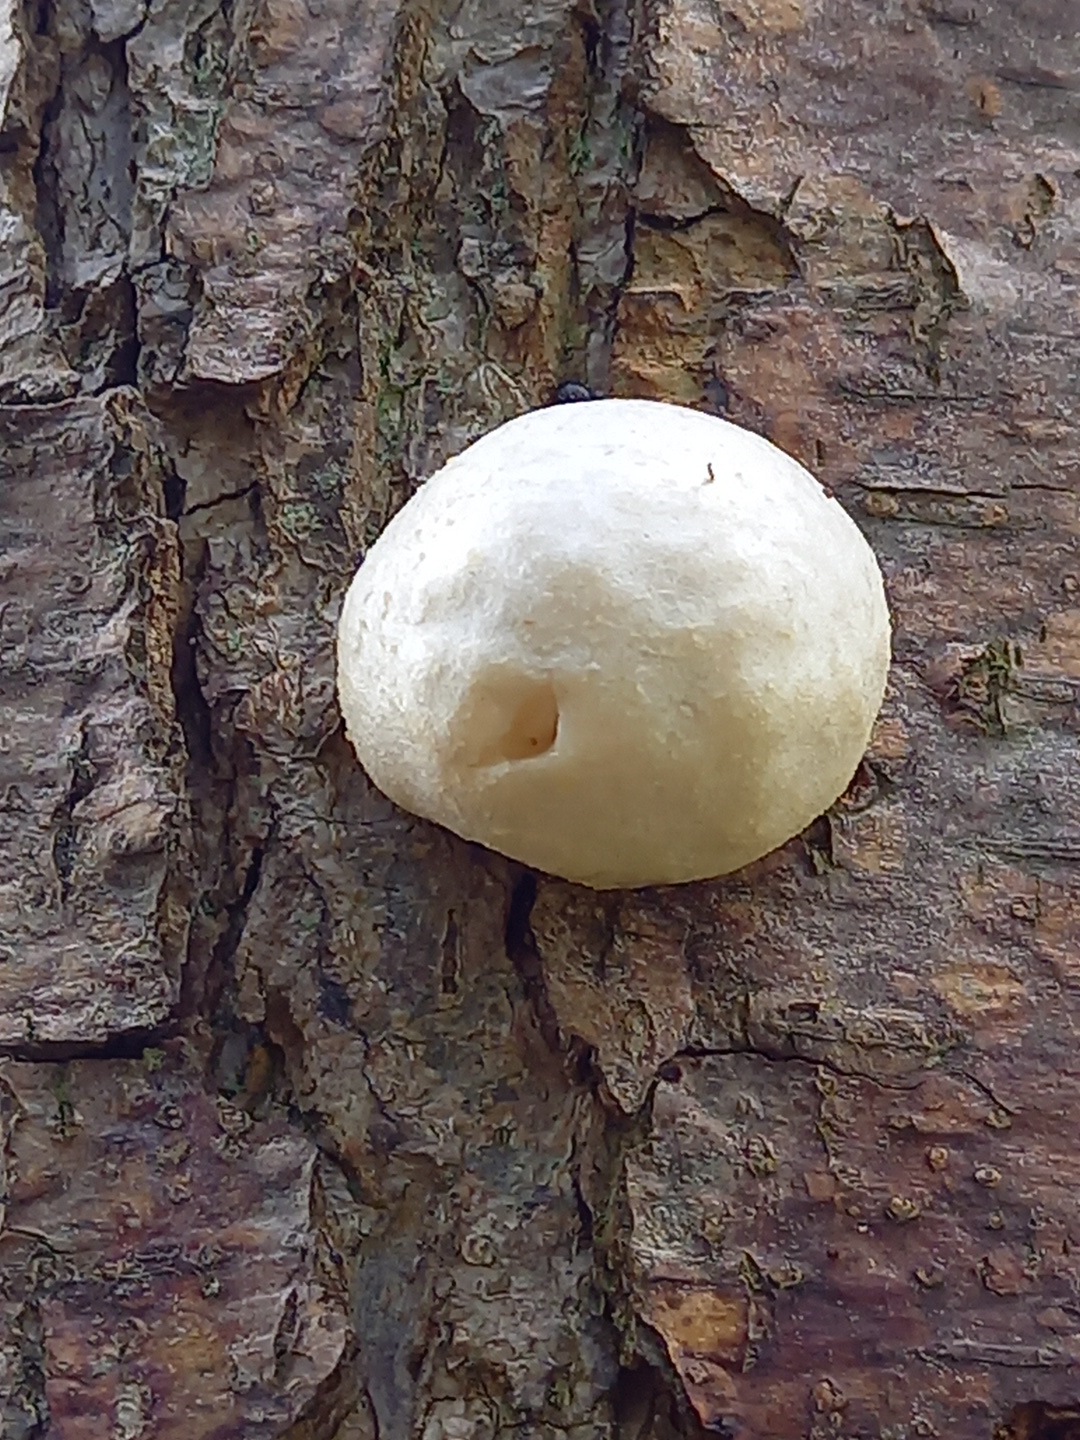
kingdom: Protozoa
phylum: Mycetozoa
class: Myxomycetes
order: Cribrariales
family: Tubiferaceae
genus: Reticularia
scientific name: Reticularia lycoperdon
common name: skinnende støvpude
